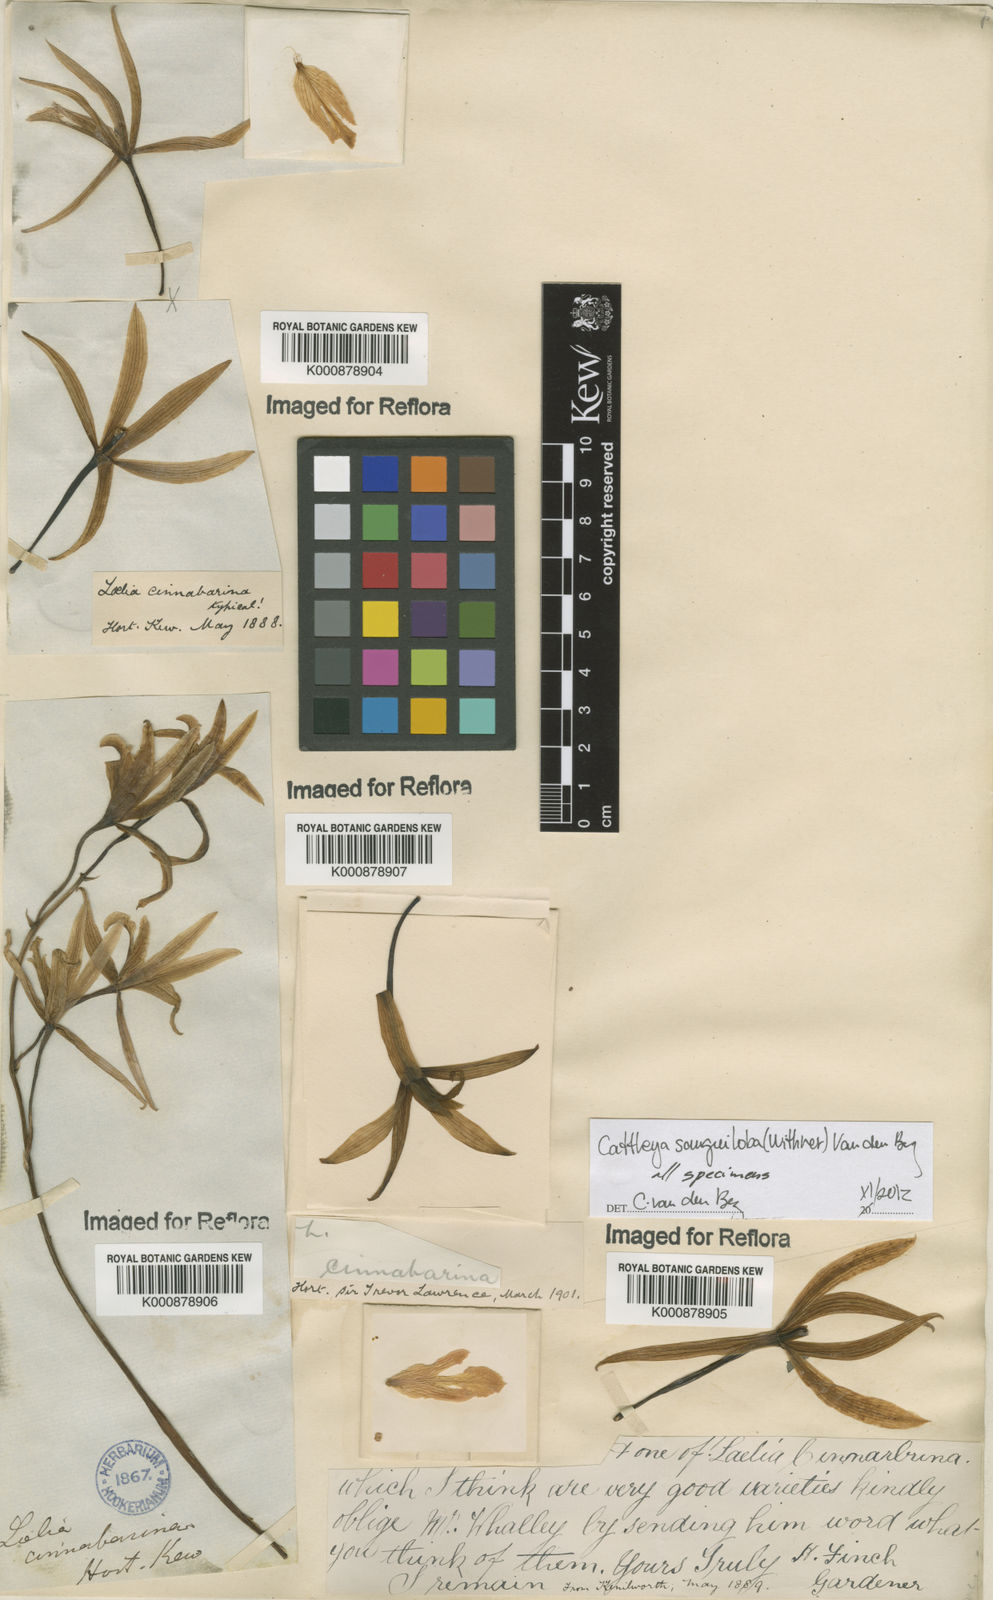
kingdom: Plantae
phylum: Tracheophyta
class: Liliopsida
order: Asparagales
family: Orchidaceae
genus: Cattleya
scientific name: Cattleya sanguiloba
